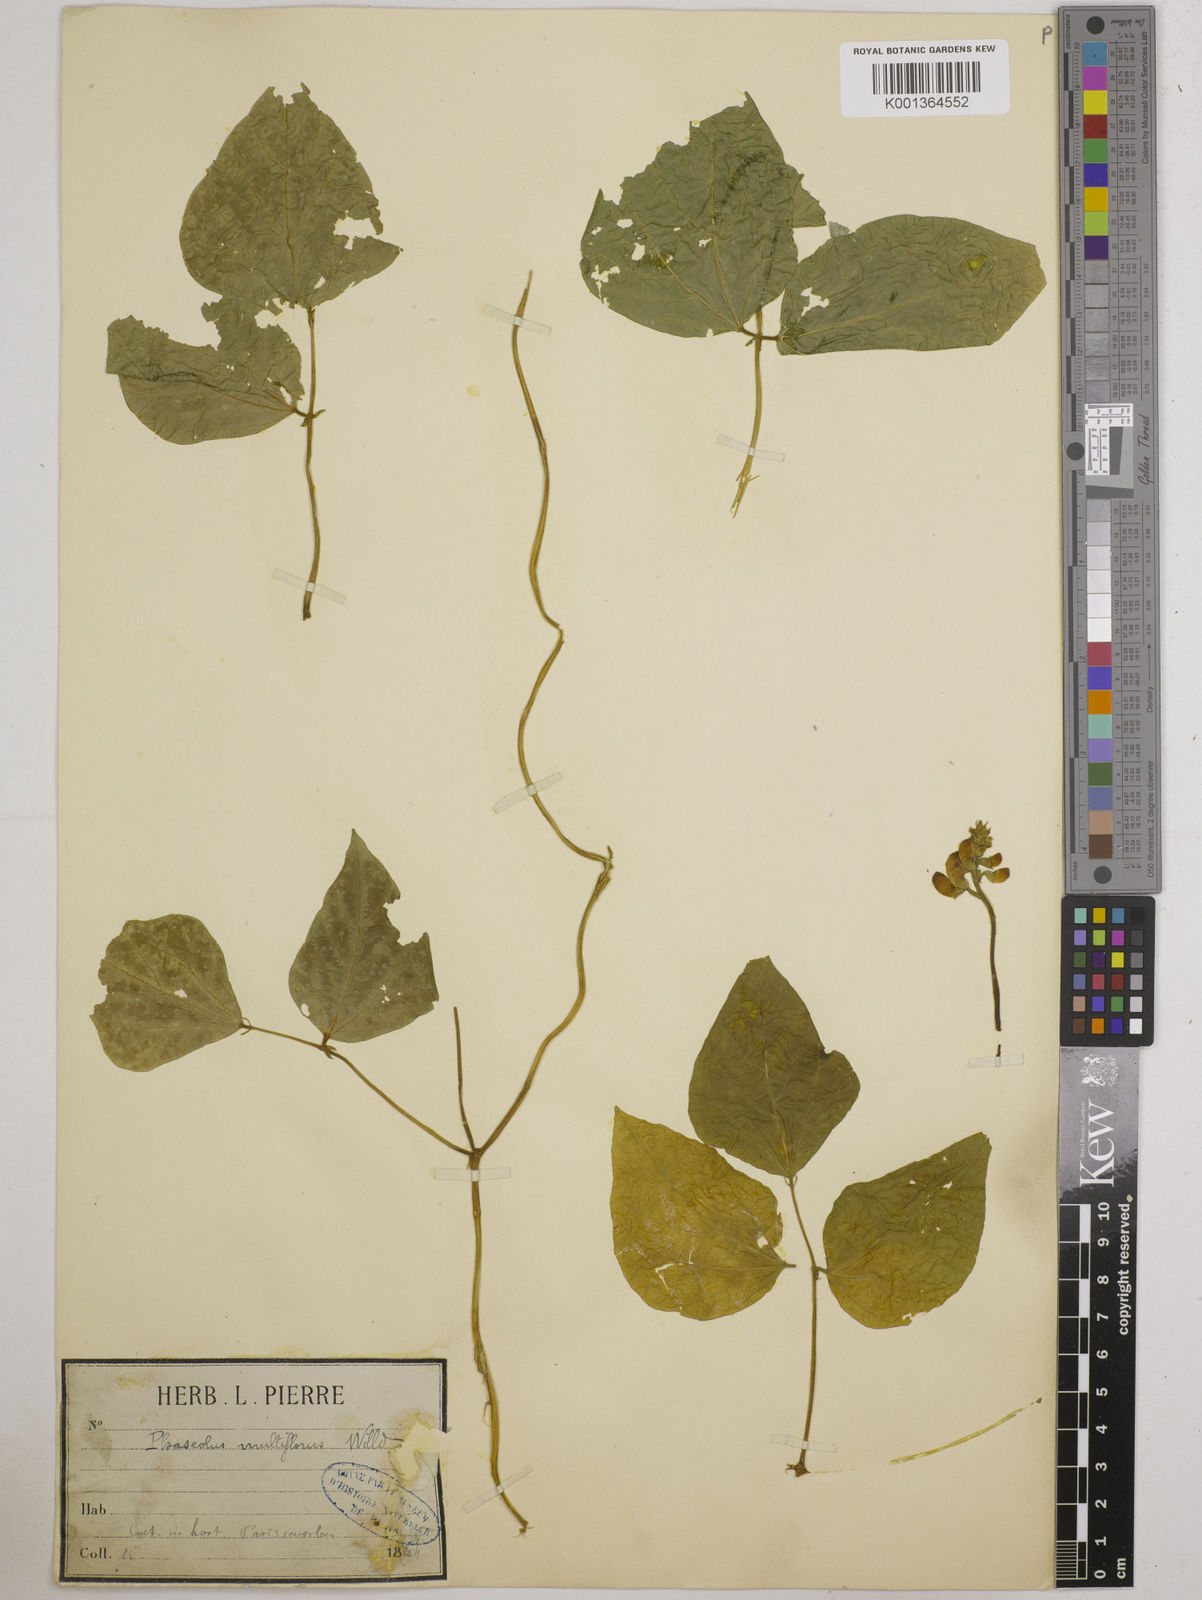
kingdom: Plantae
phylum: Tracheophyta
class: Magnoliopsida
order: Fabales
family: Fabaceae
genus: Phaseolus
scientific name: Phaseolus coccineus
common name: Runner bean
